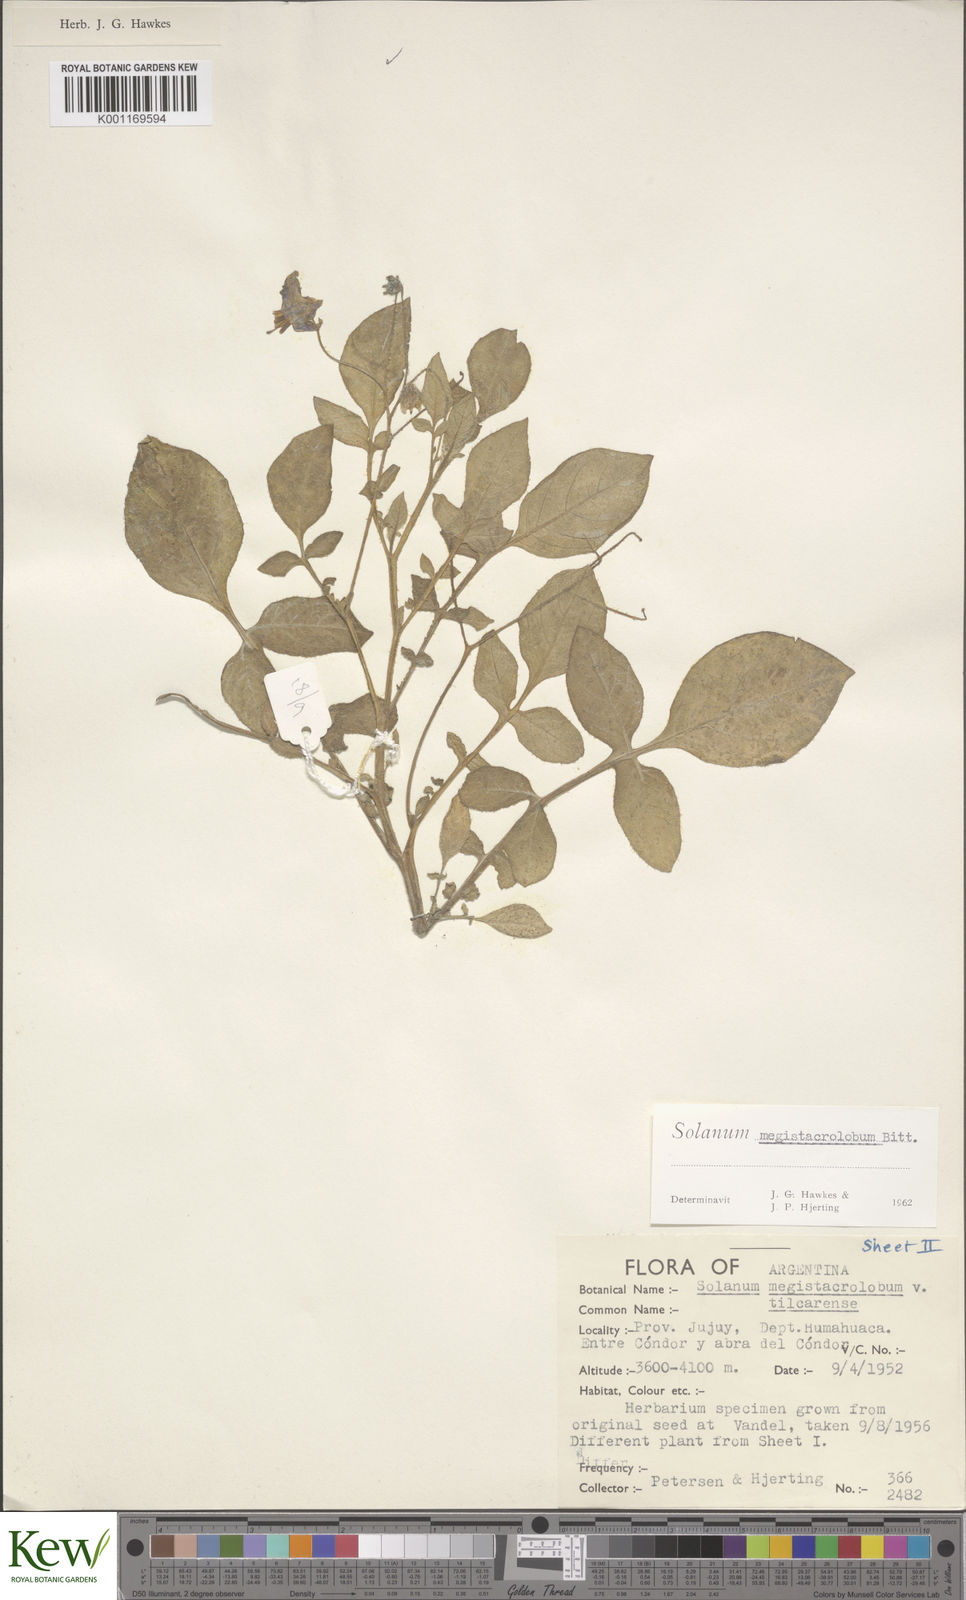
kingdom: Plantae
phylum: Tracheophyta
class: Magnoliopsida
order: Solanales
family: Solanaceae
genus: Solanum
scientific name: Solanum boliviense
